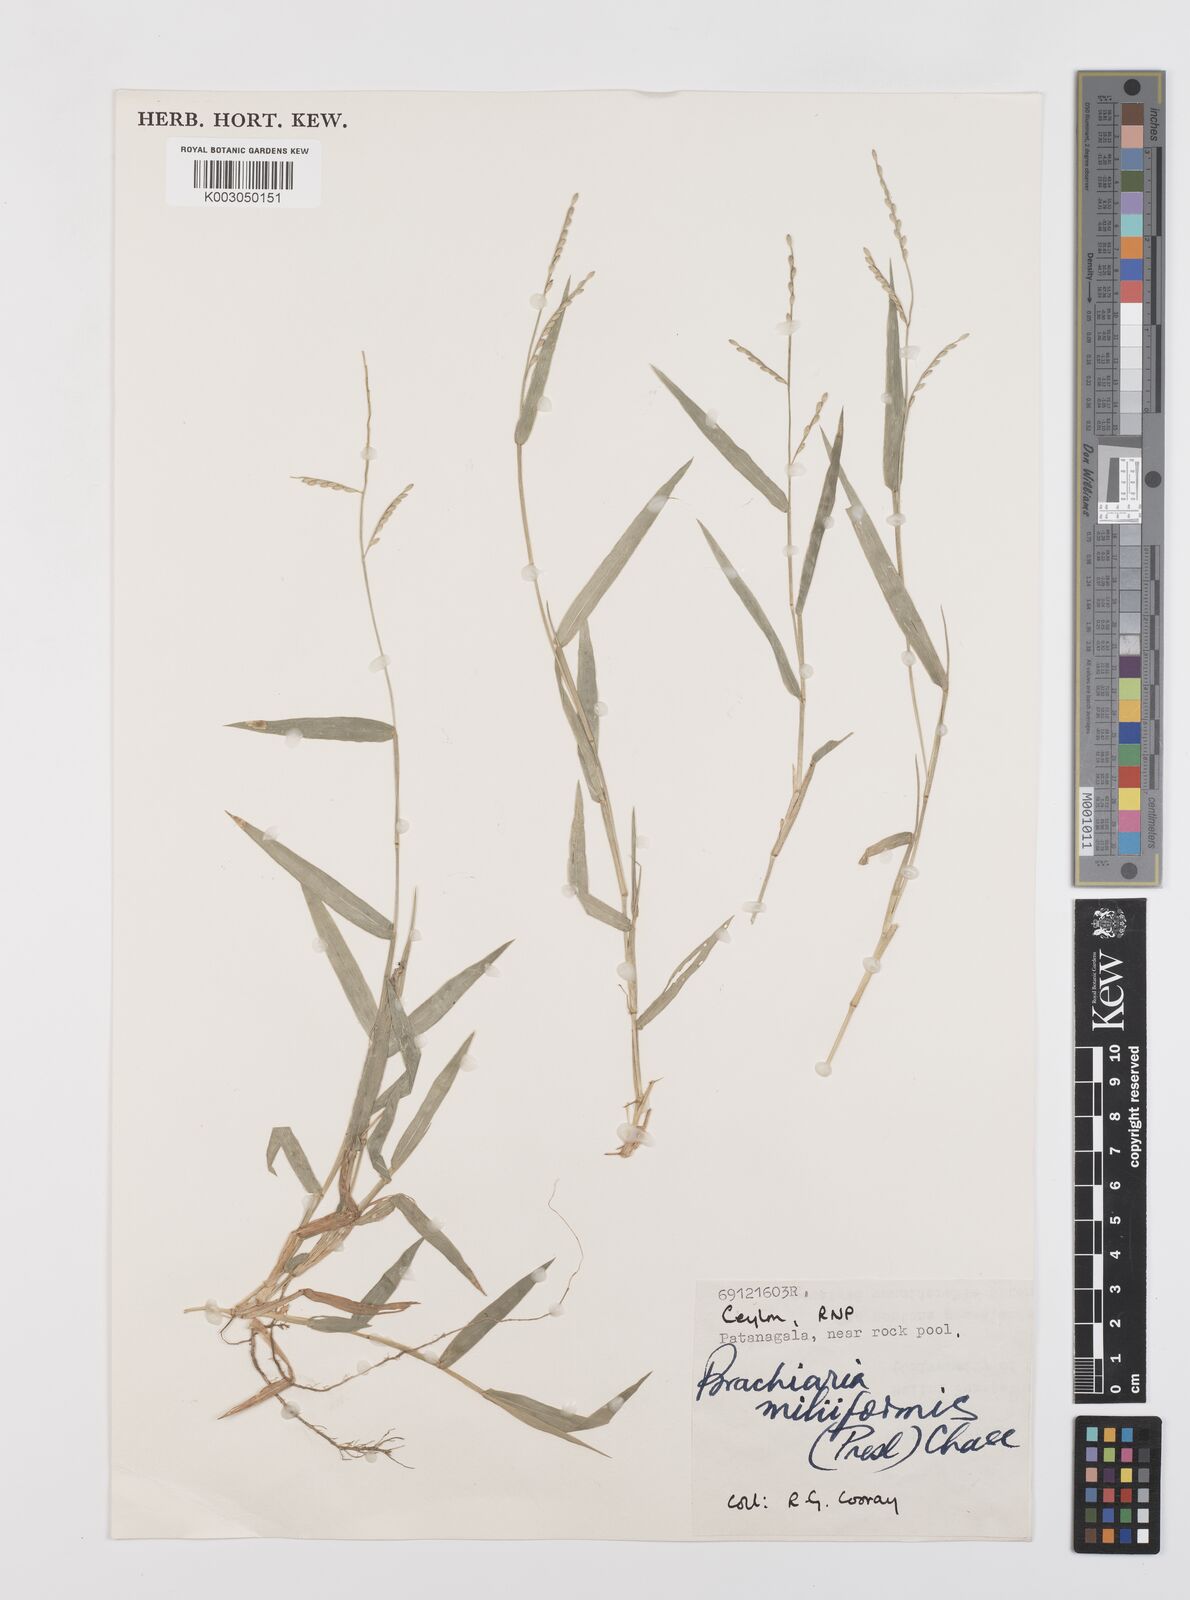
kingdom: Plantae
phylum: Tracheophyta
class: Liliopsida
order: Poales
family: Poaceae
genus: Urochloa
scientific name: Urochloa subquadripara
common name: Armgrass millet
